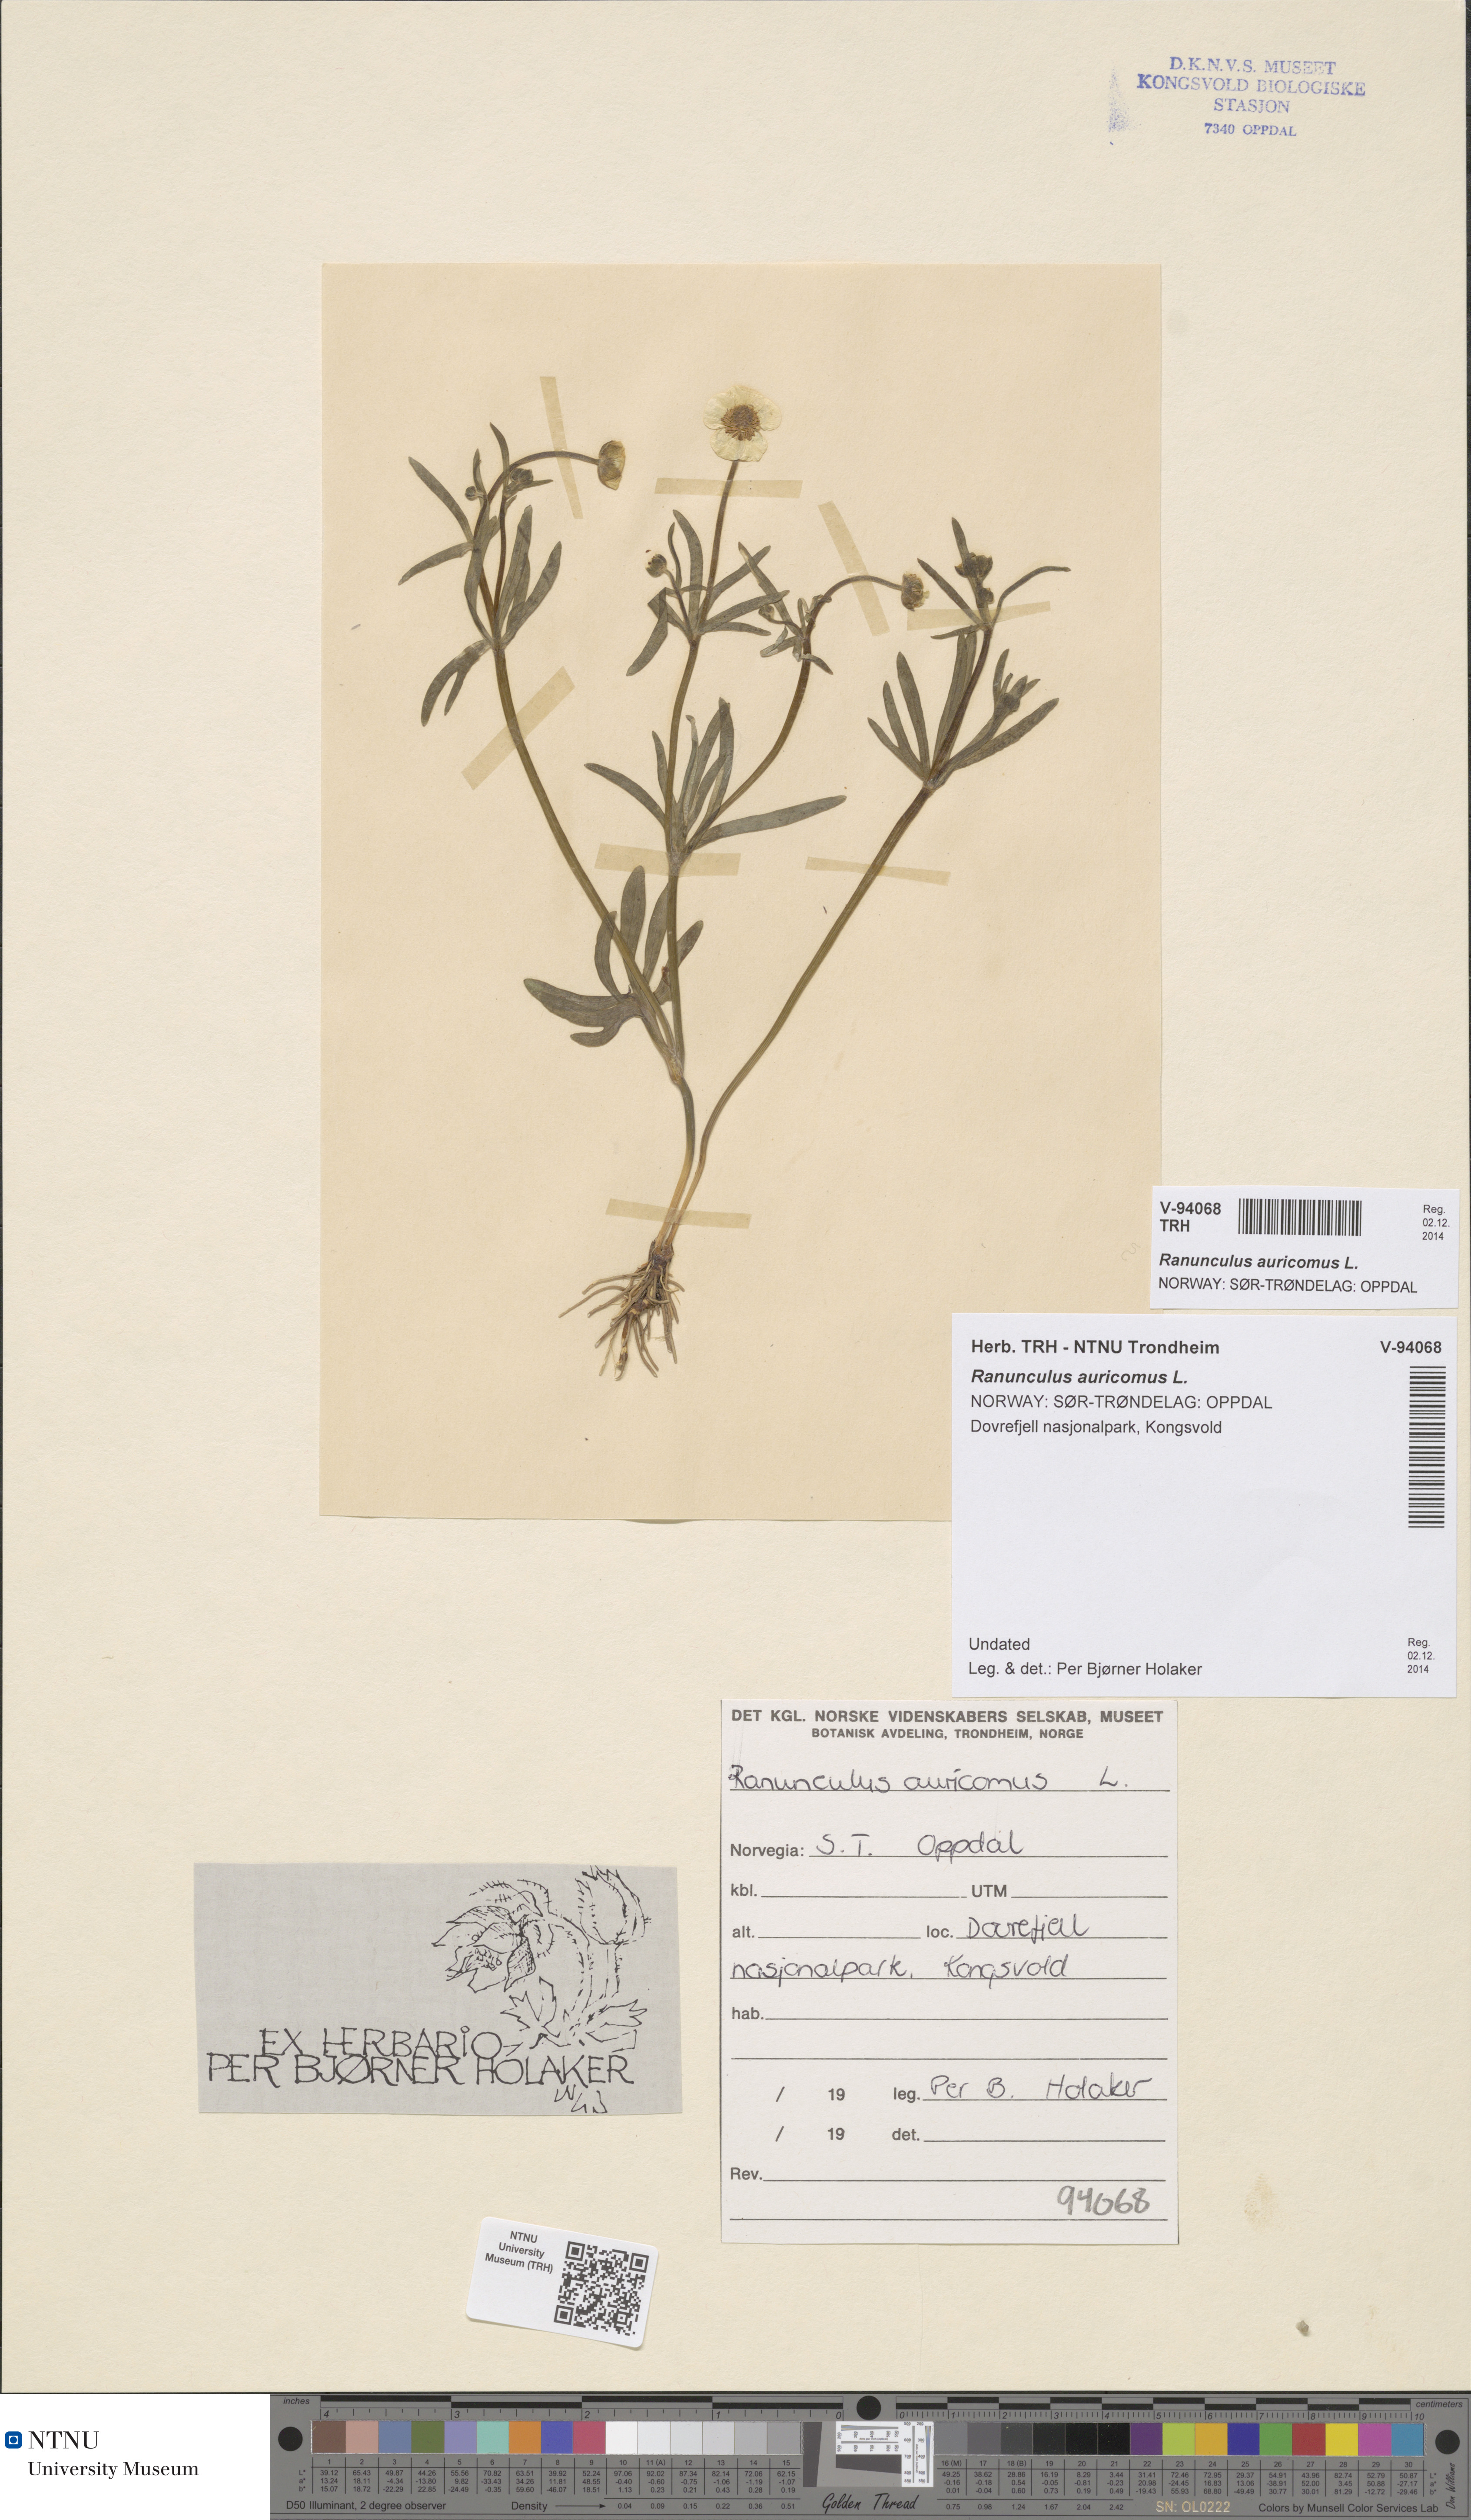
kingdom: Plantae
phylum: Tracheophyta
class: Magnoliopsida
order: Ranunculales
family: Ranunculaceae
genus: Ranunculus
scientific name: Ranunculus auricomus
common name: Goldilocks buttercup
